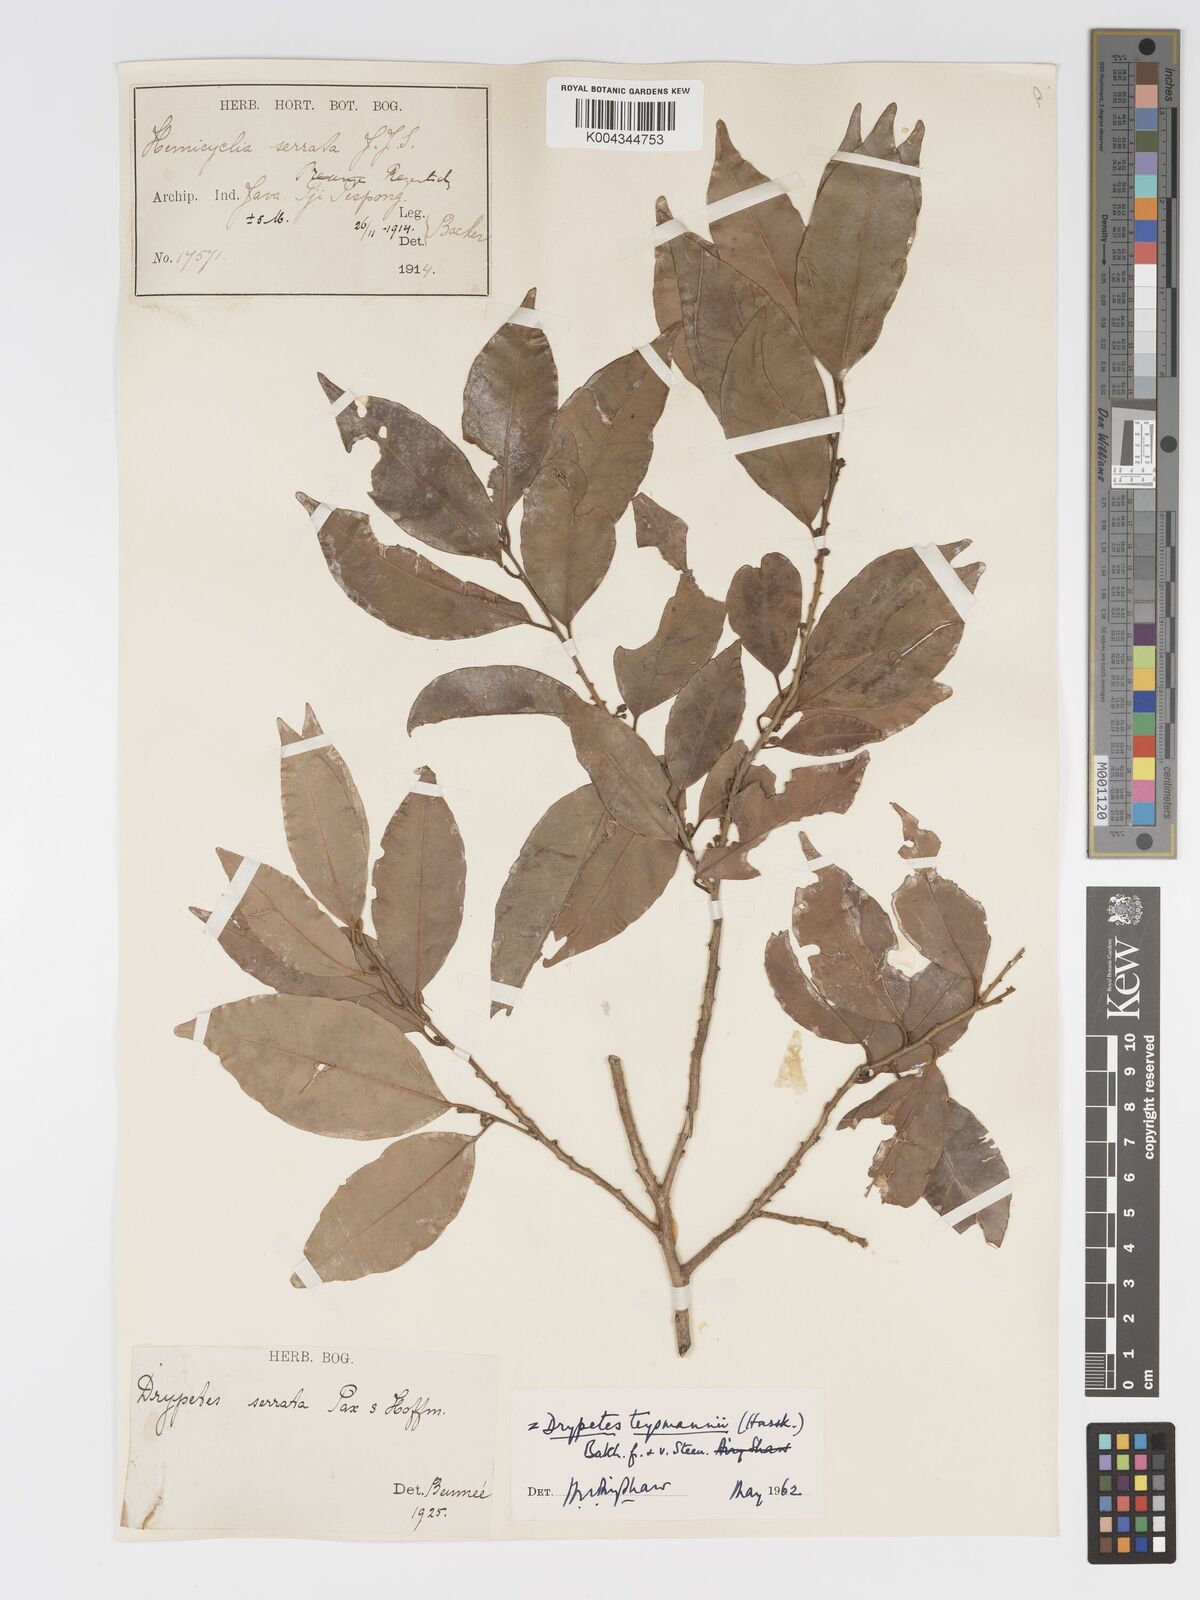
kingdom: Plantae
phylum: Tracheophyta
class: Magnoliopsida
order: Malpighiales
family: Putranjivaceae
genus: Drypetes
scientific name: Drypetes teysmannii
